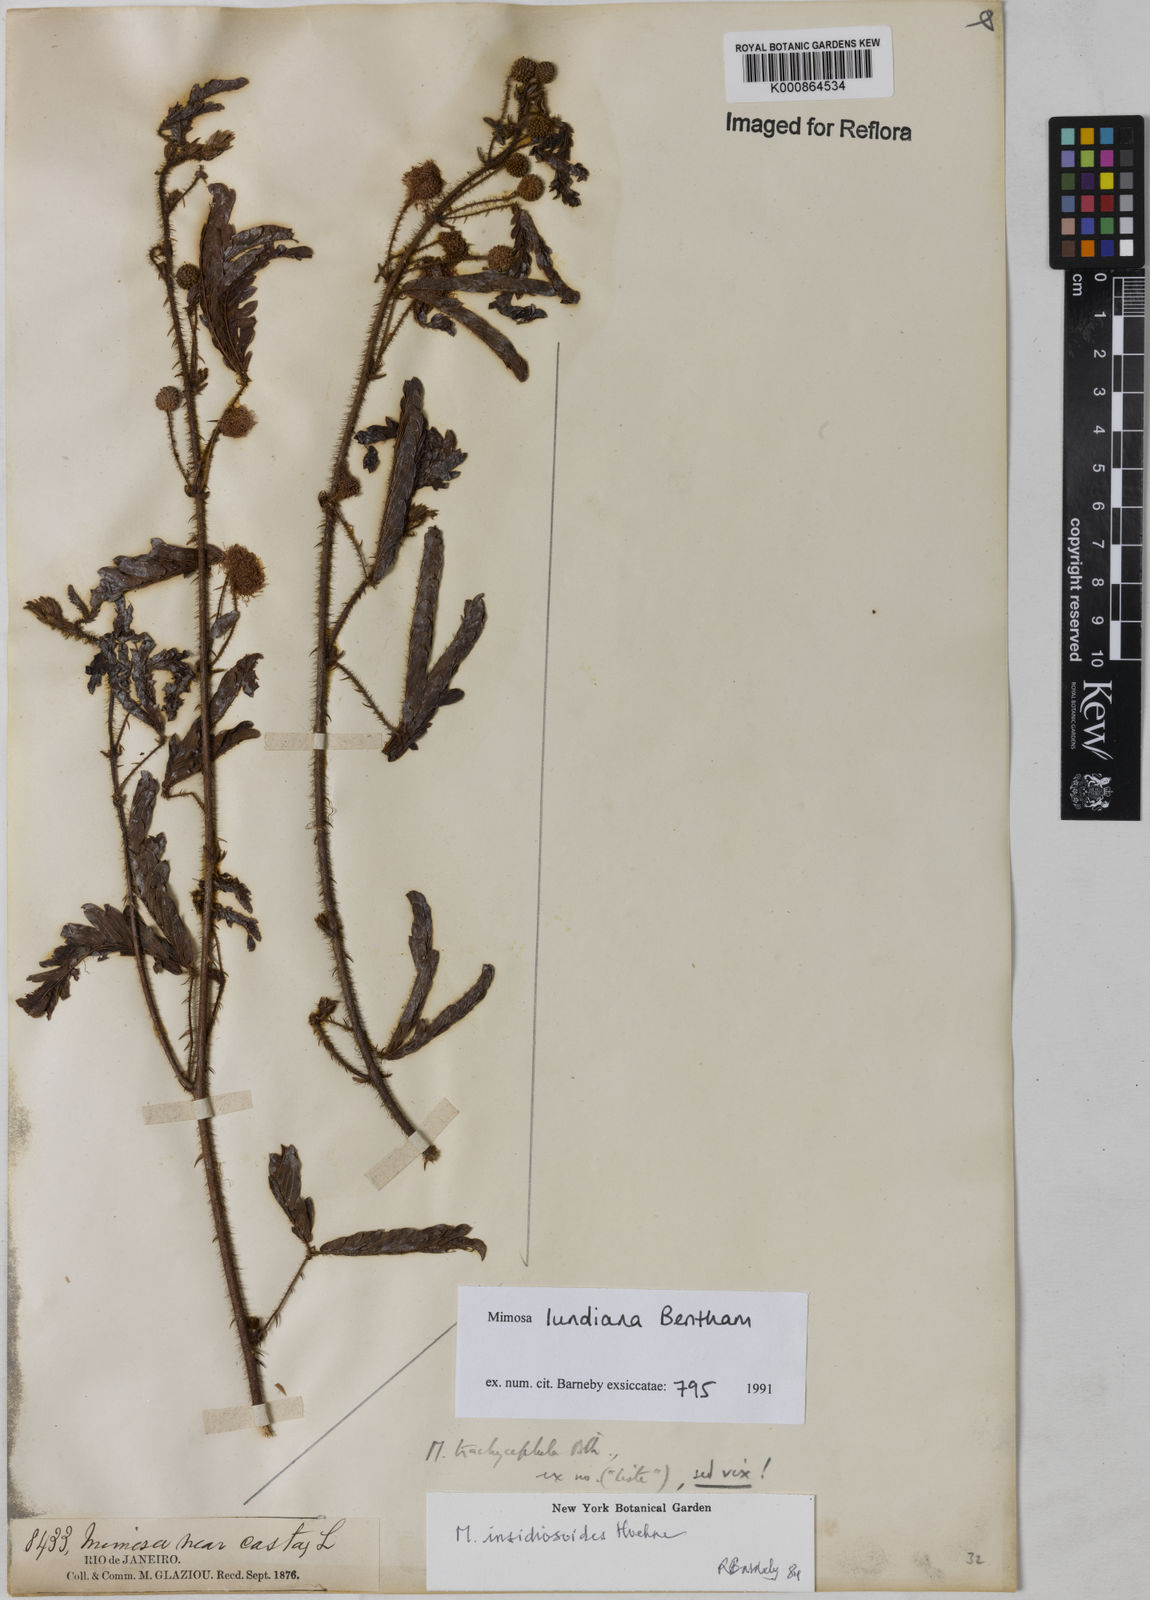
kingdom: Plantae
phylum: Tracheophyta
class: Magnoliopsida
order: Fabales
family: Fabaceae
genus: Mimosa
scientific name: Mimosa lundiana
